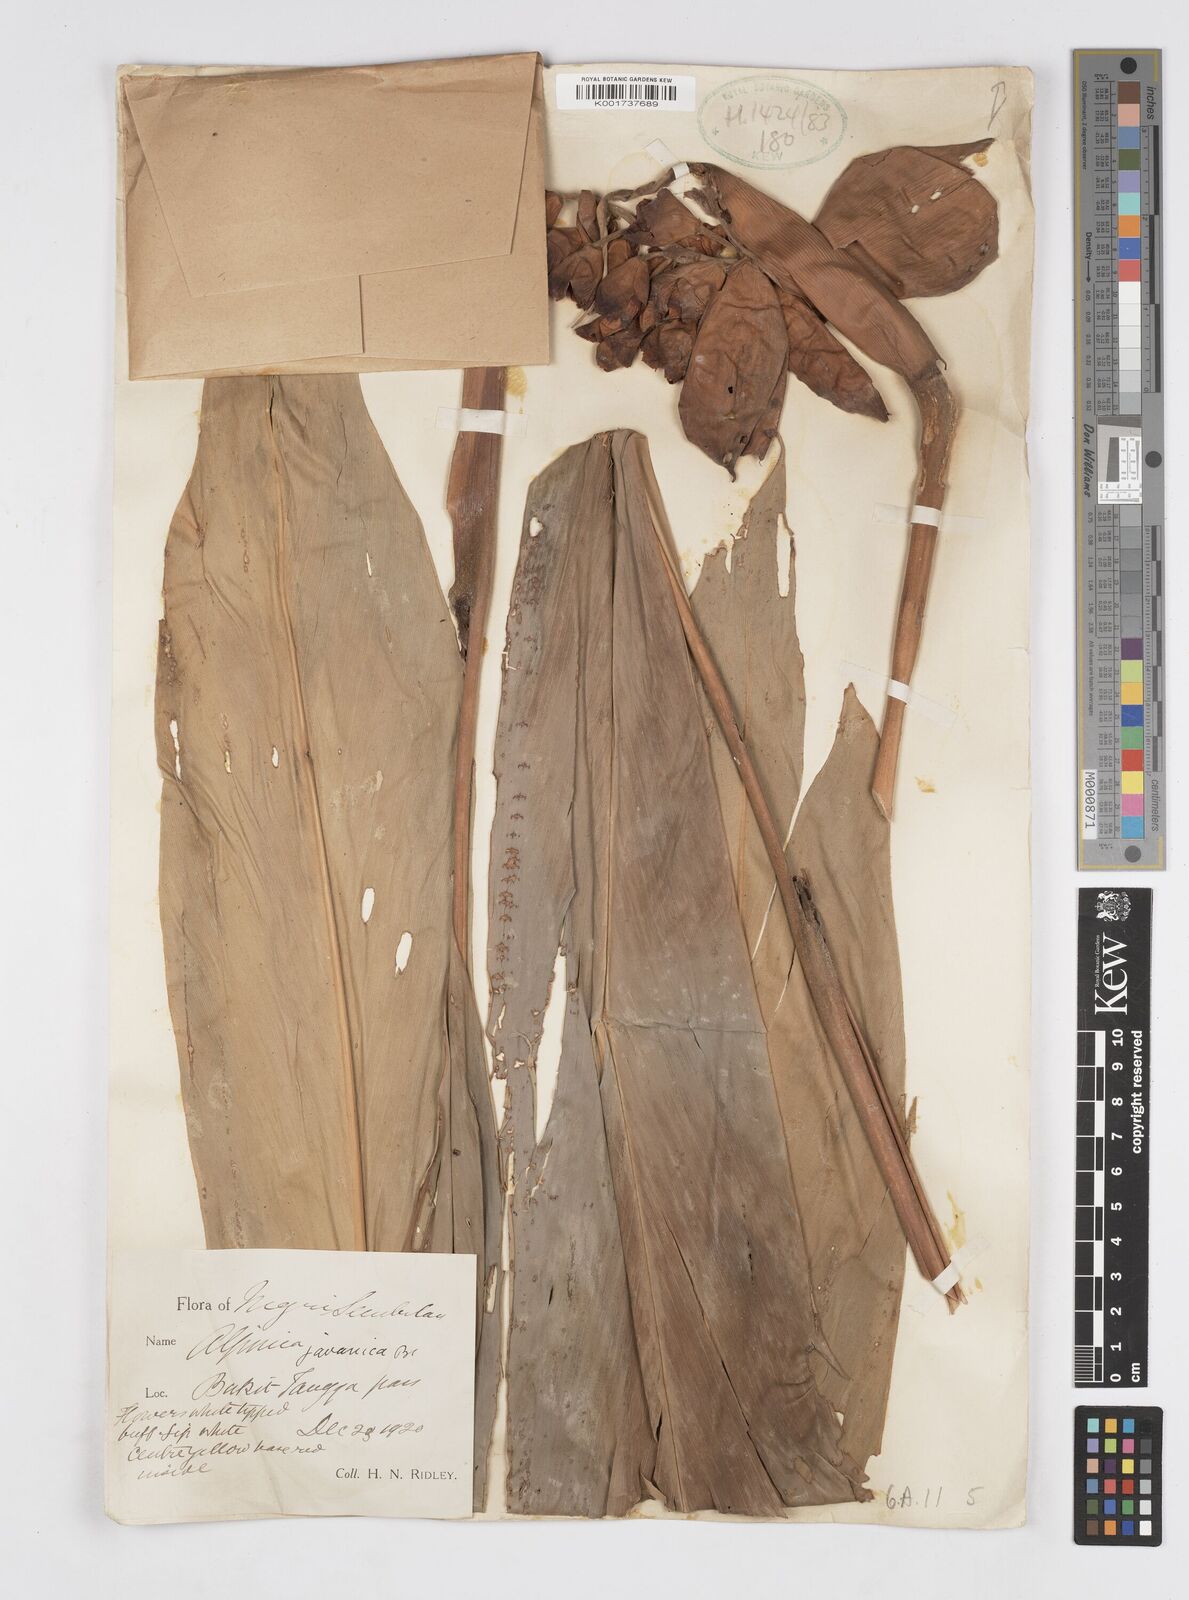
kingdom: Plantae
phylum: Tracheophyta
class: Liliopsida
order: Zingiberales
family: Zingiberaceae
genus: Alpinia
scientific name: Alpinia javanica
